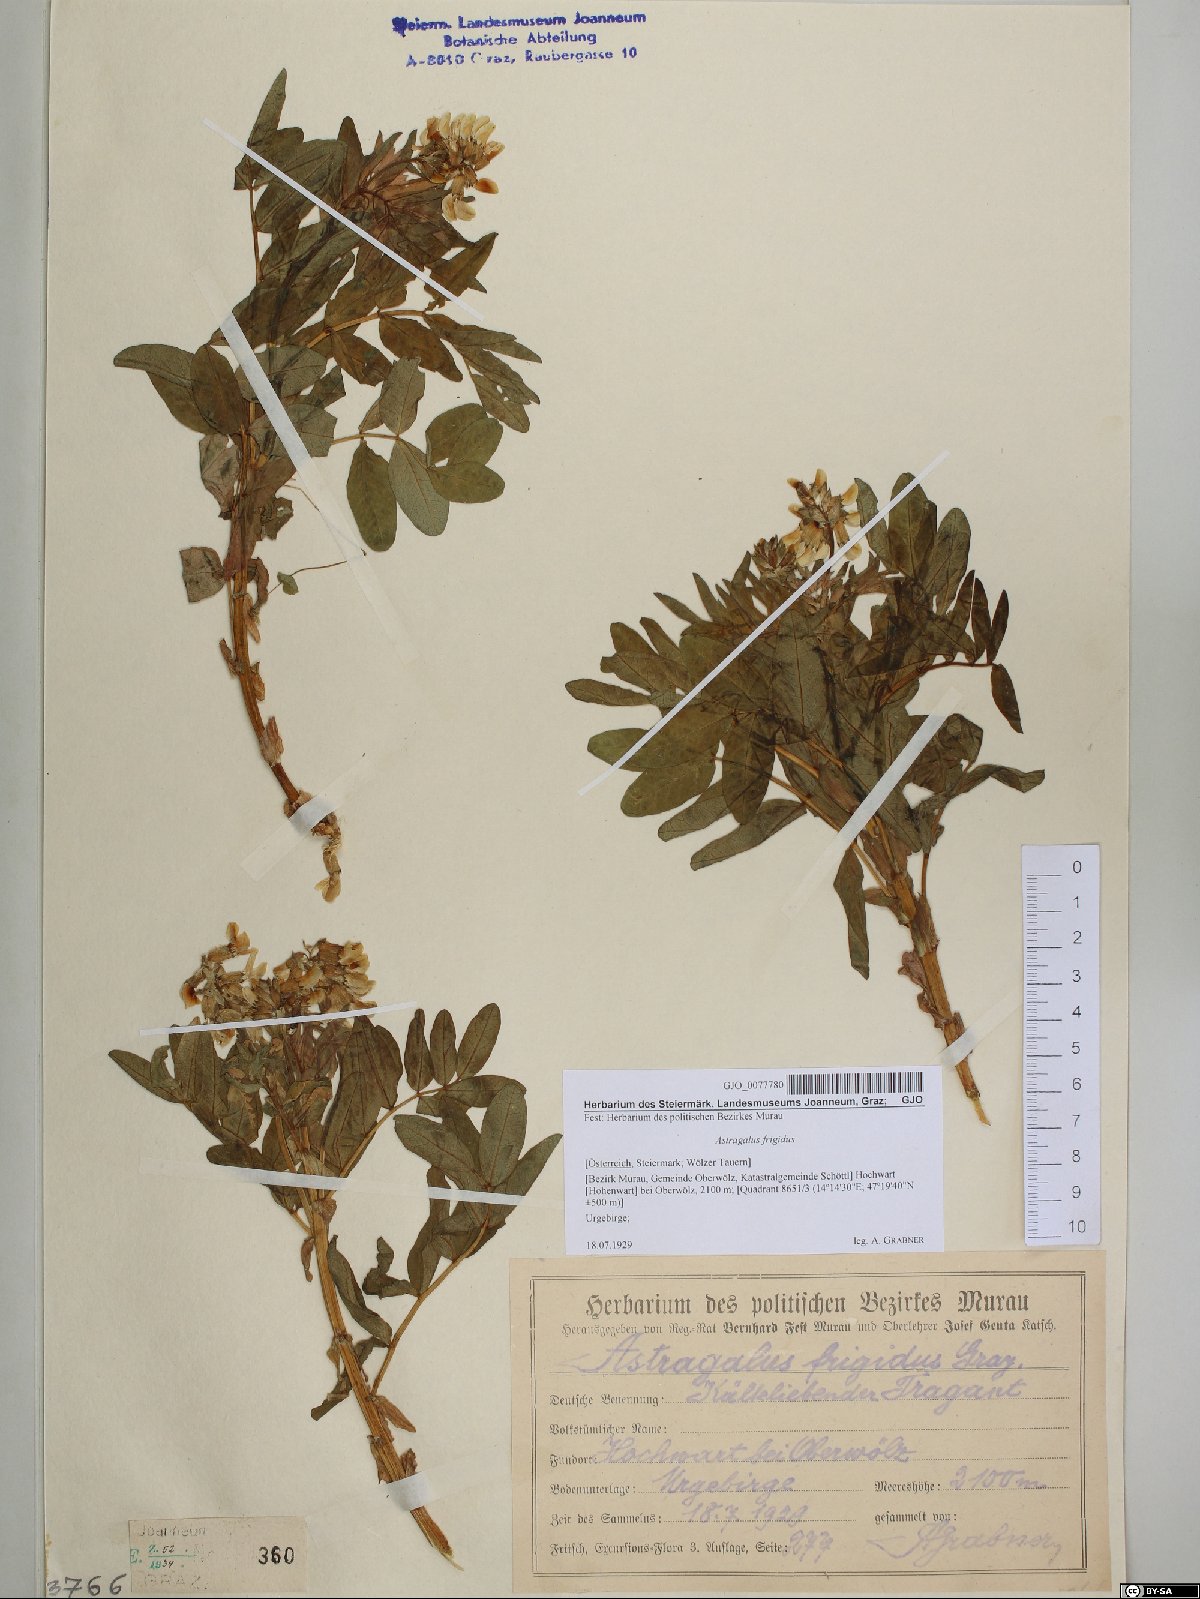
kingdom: Plantae
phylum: Tracheophyta
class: Magnoliopsida
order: Fabales
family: Fabaceae
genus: Astragalus
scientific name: Astragalus frigidus
